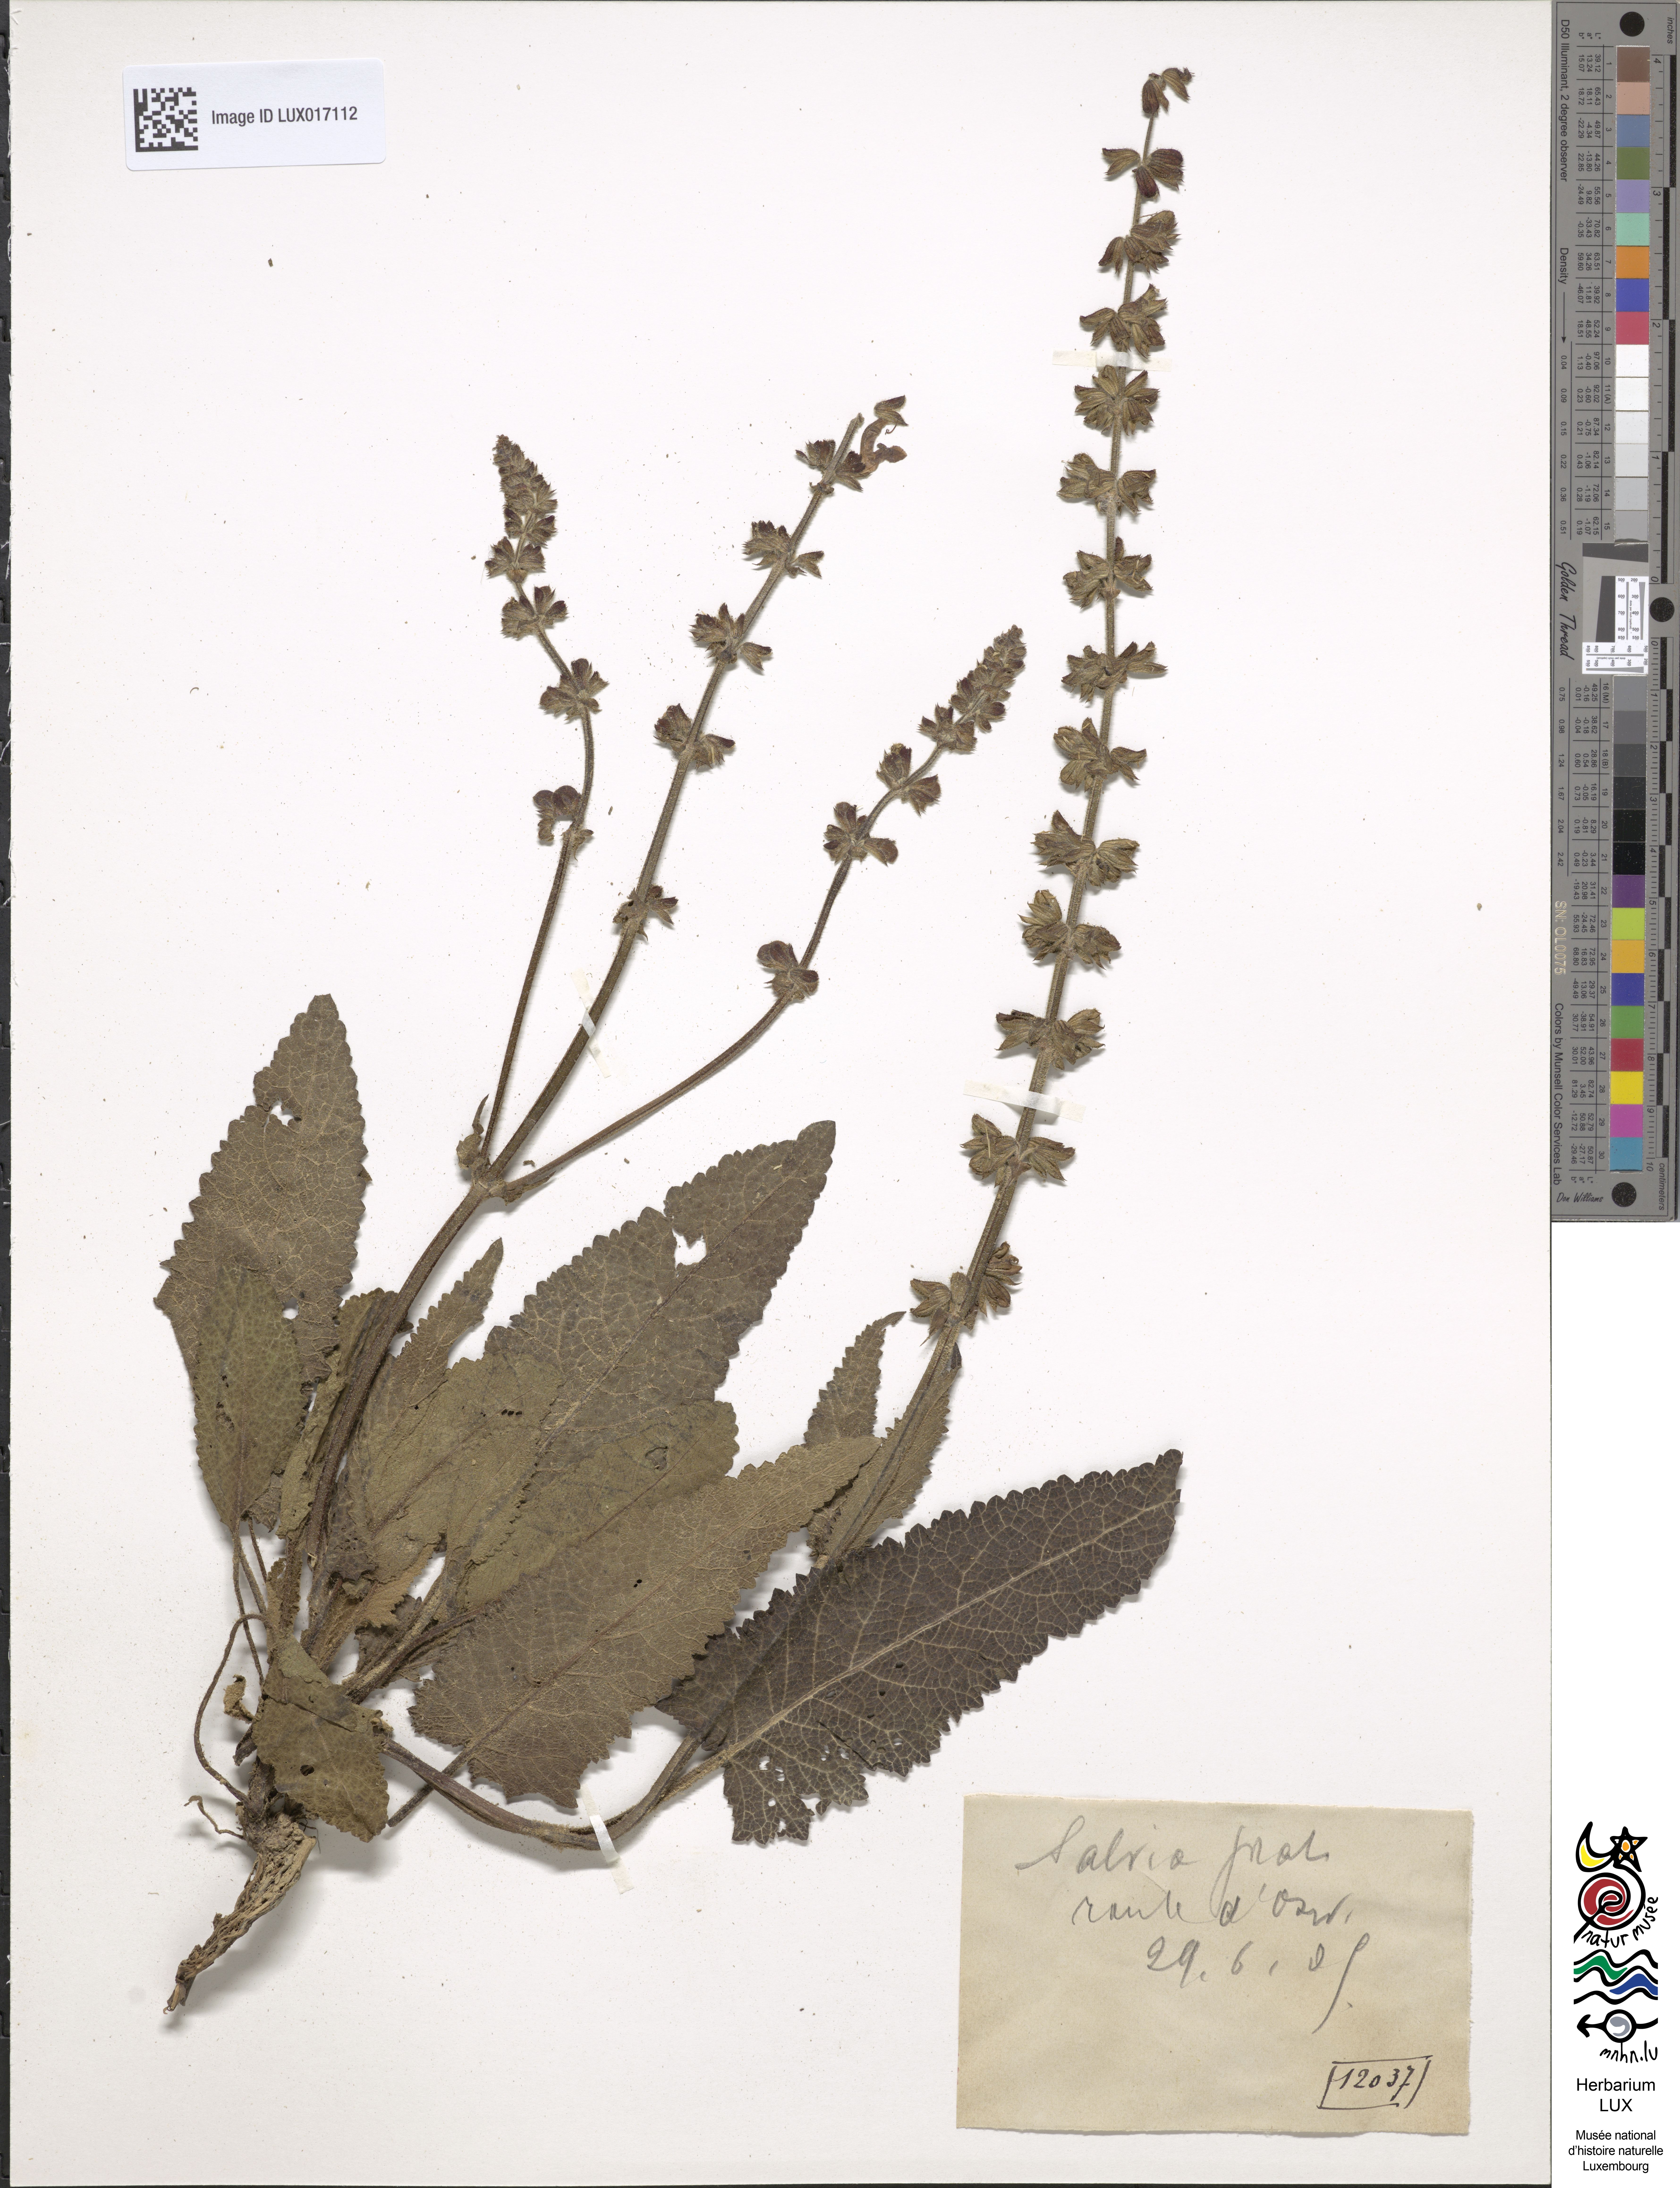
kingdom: Plantae
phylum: Tracheophyta
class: Magnoliopsida
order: Lamiales
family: Lamiaceae
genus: Salvia
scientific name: Salvia pratensis
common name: Meadow sage
